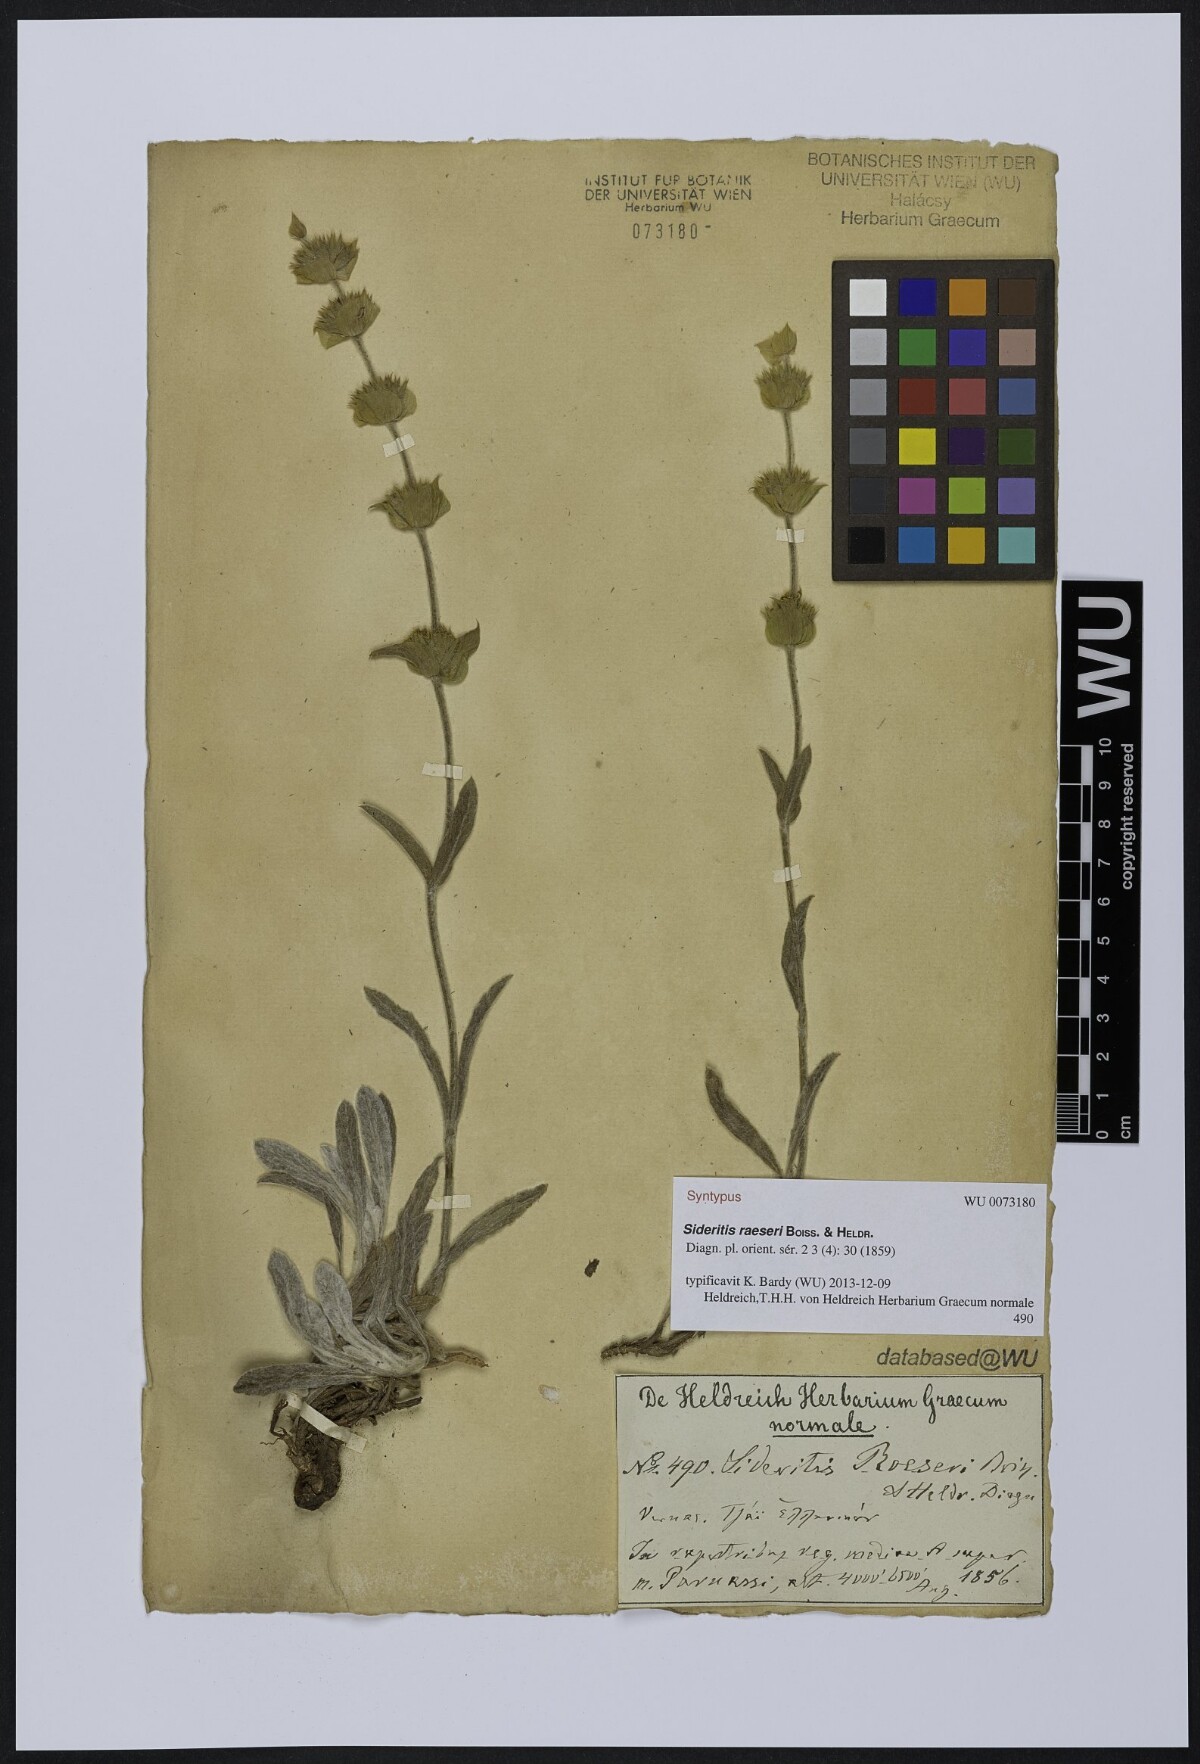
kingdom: Plantae
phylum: Tracheophyta
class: Magnoliopsida
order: Lamiales
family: Lamiaceae
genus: Sideritis
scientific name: Sideritis raeseri
